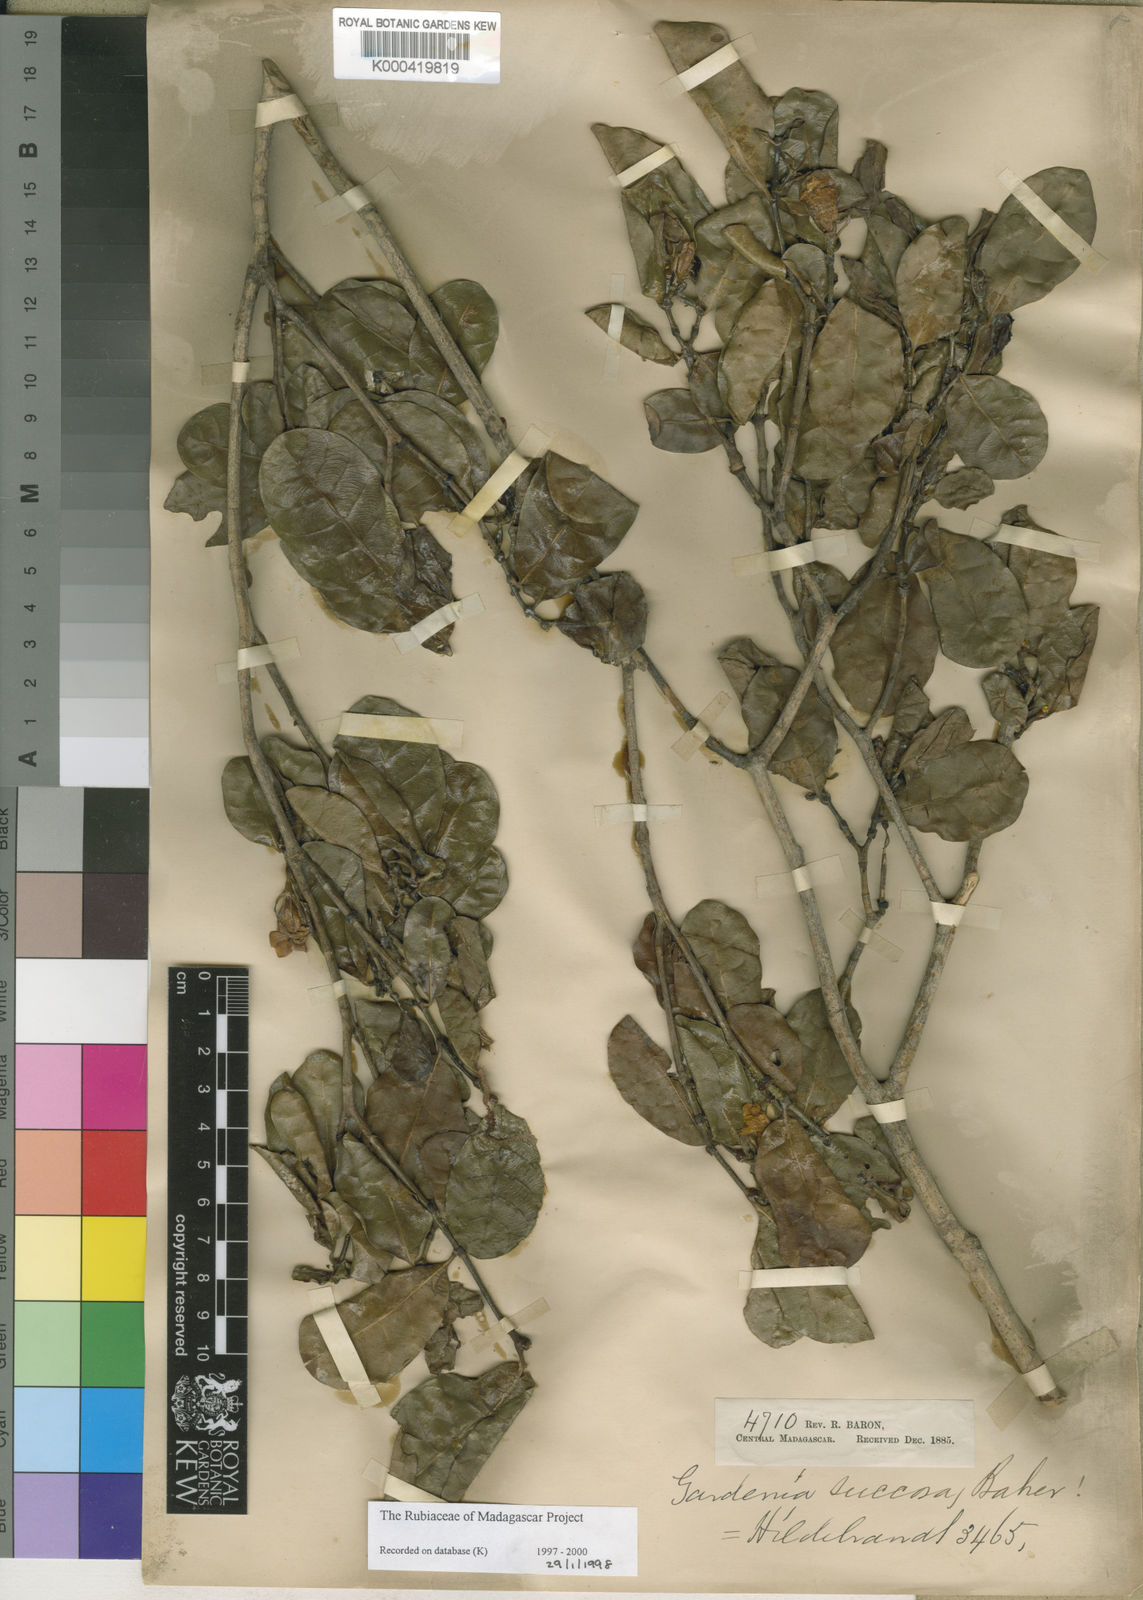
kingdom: Plantae
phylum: Tracheophyta
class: Magnoliopsida
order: Gentianales
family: Rubiaceae
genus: Gardenia
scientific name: Gardenia rutenbergiana
